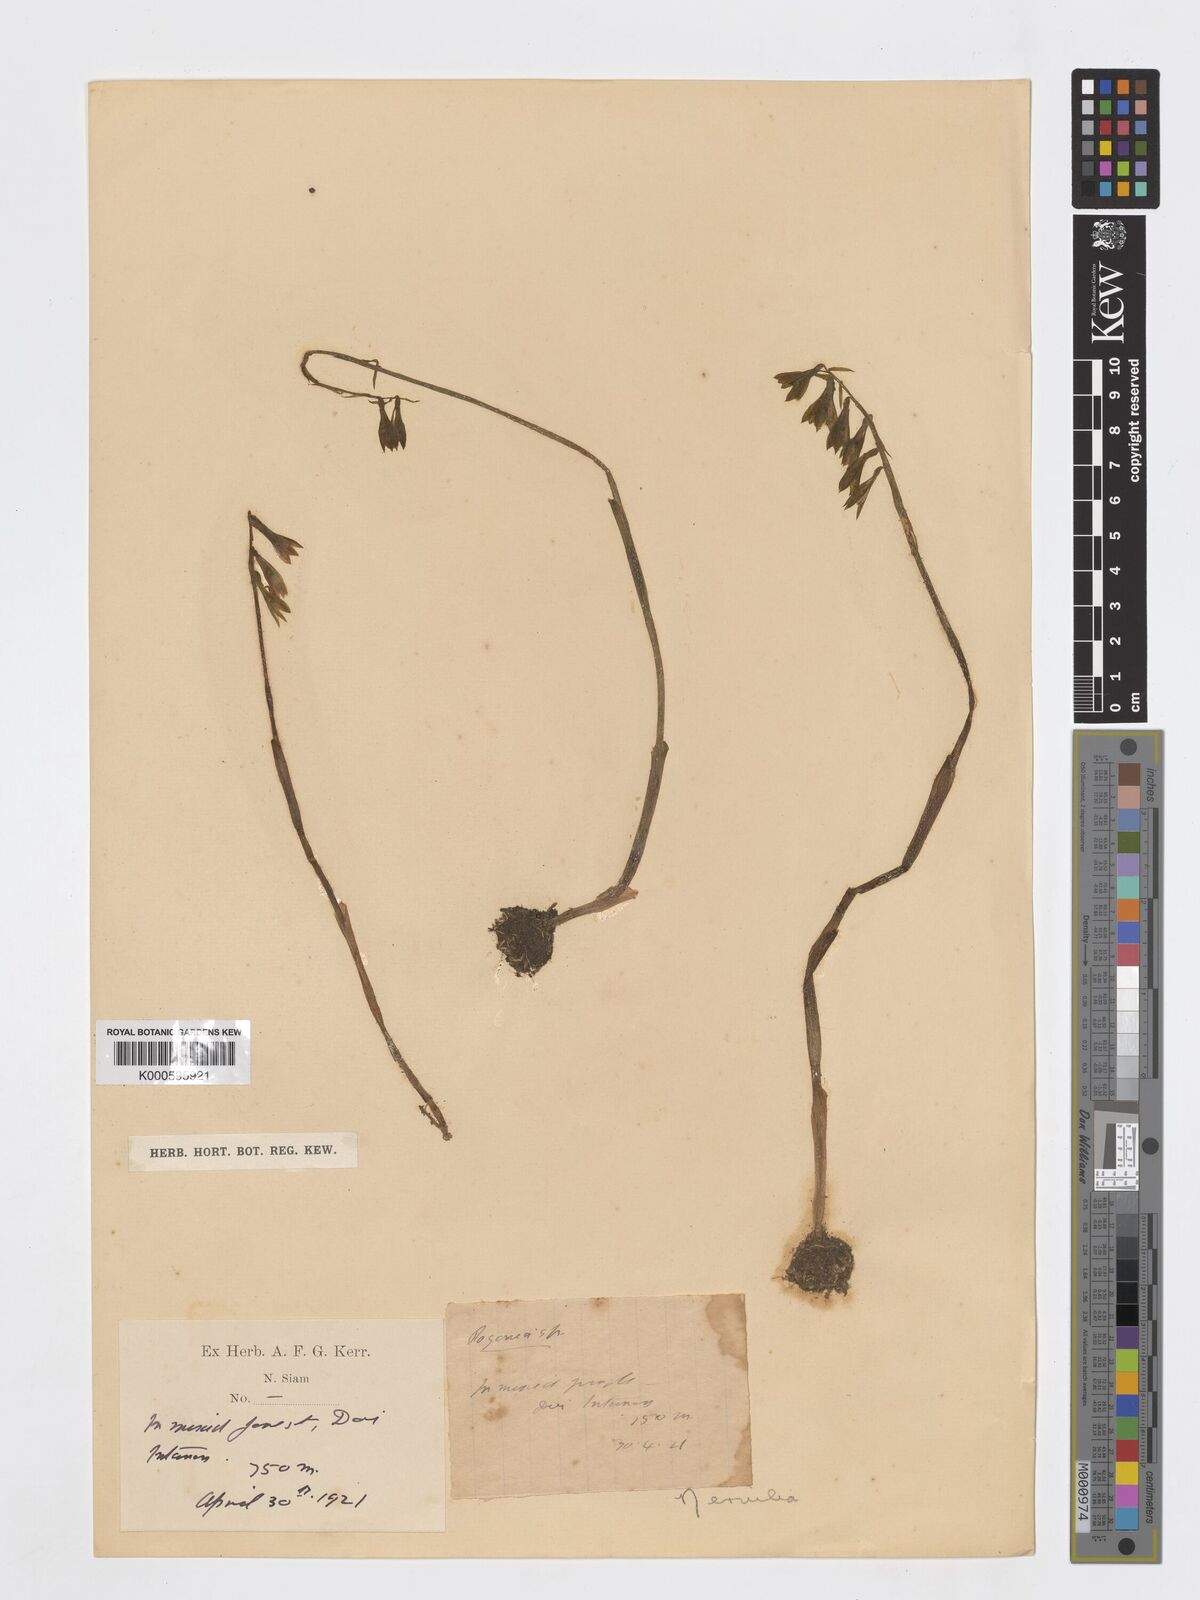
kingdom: Plantae
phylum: Tracheophyta
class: Liliopsida
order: Asparagales
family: Orchidaceae
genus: Nervilia
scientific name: Nervilia concolor
